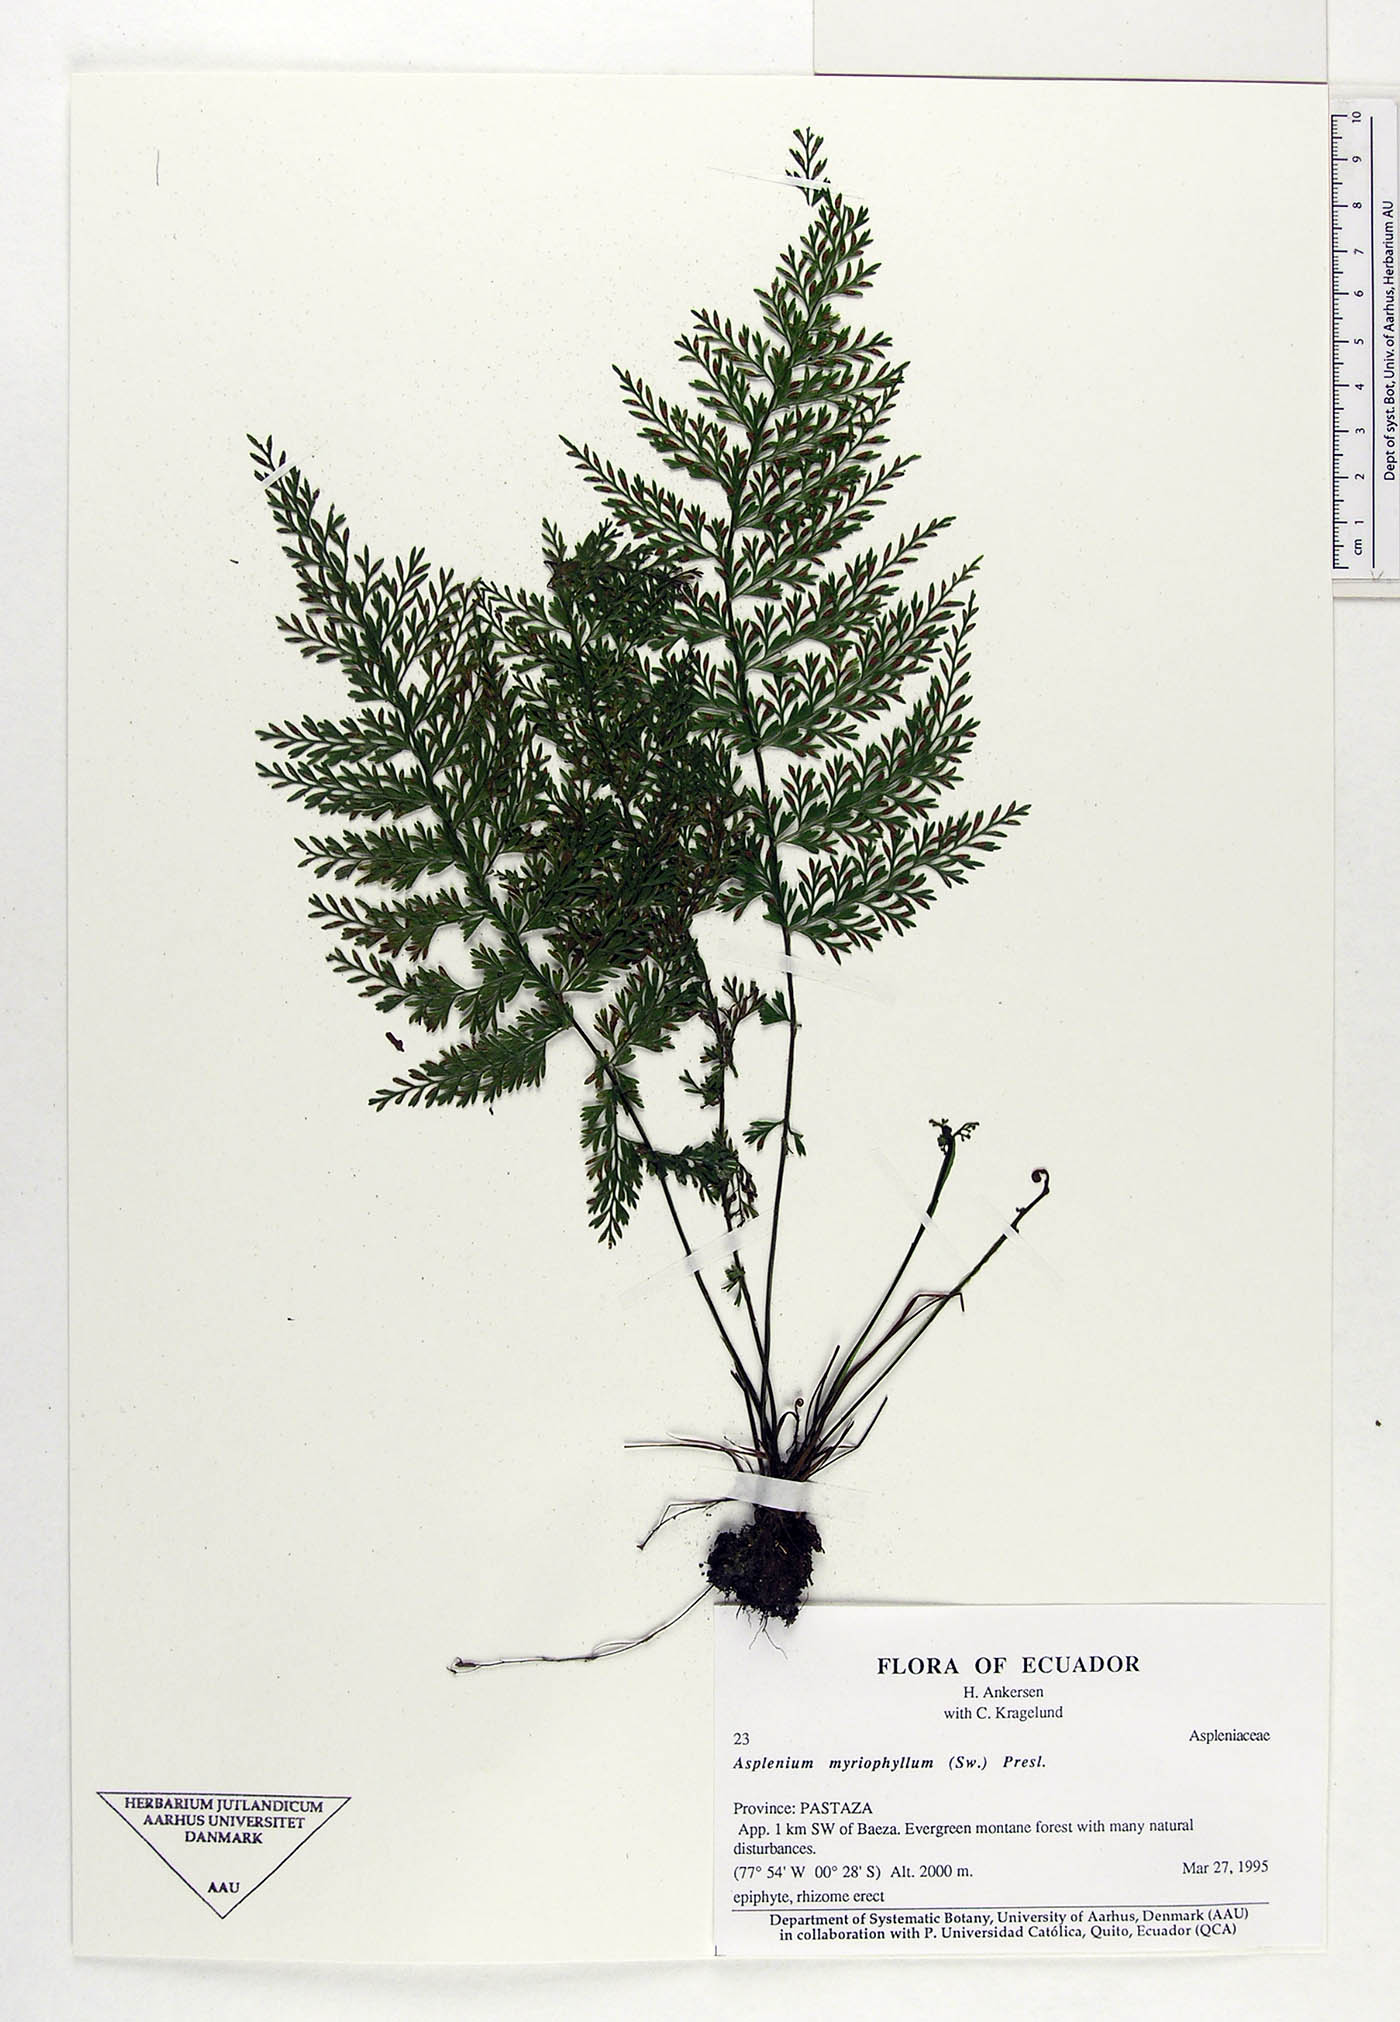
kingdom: Plantae
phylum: Tracheophyta
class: Polypodiopsida
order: Polypodiales
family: Aspleniaceae
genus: Asplenium
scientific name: Asplenium myriophyllum
